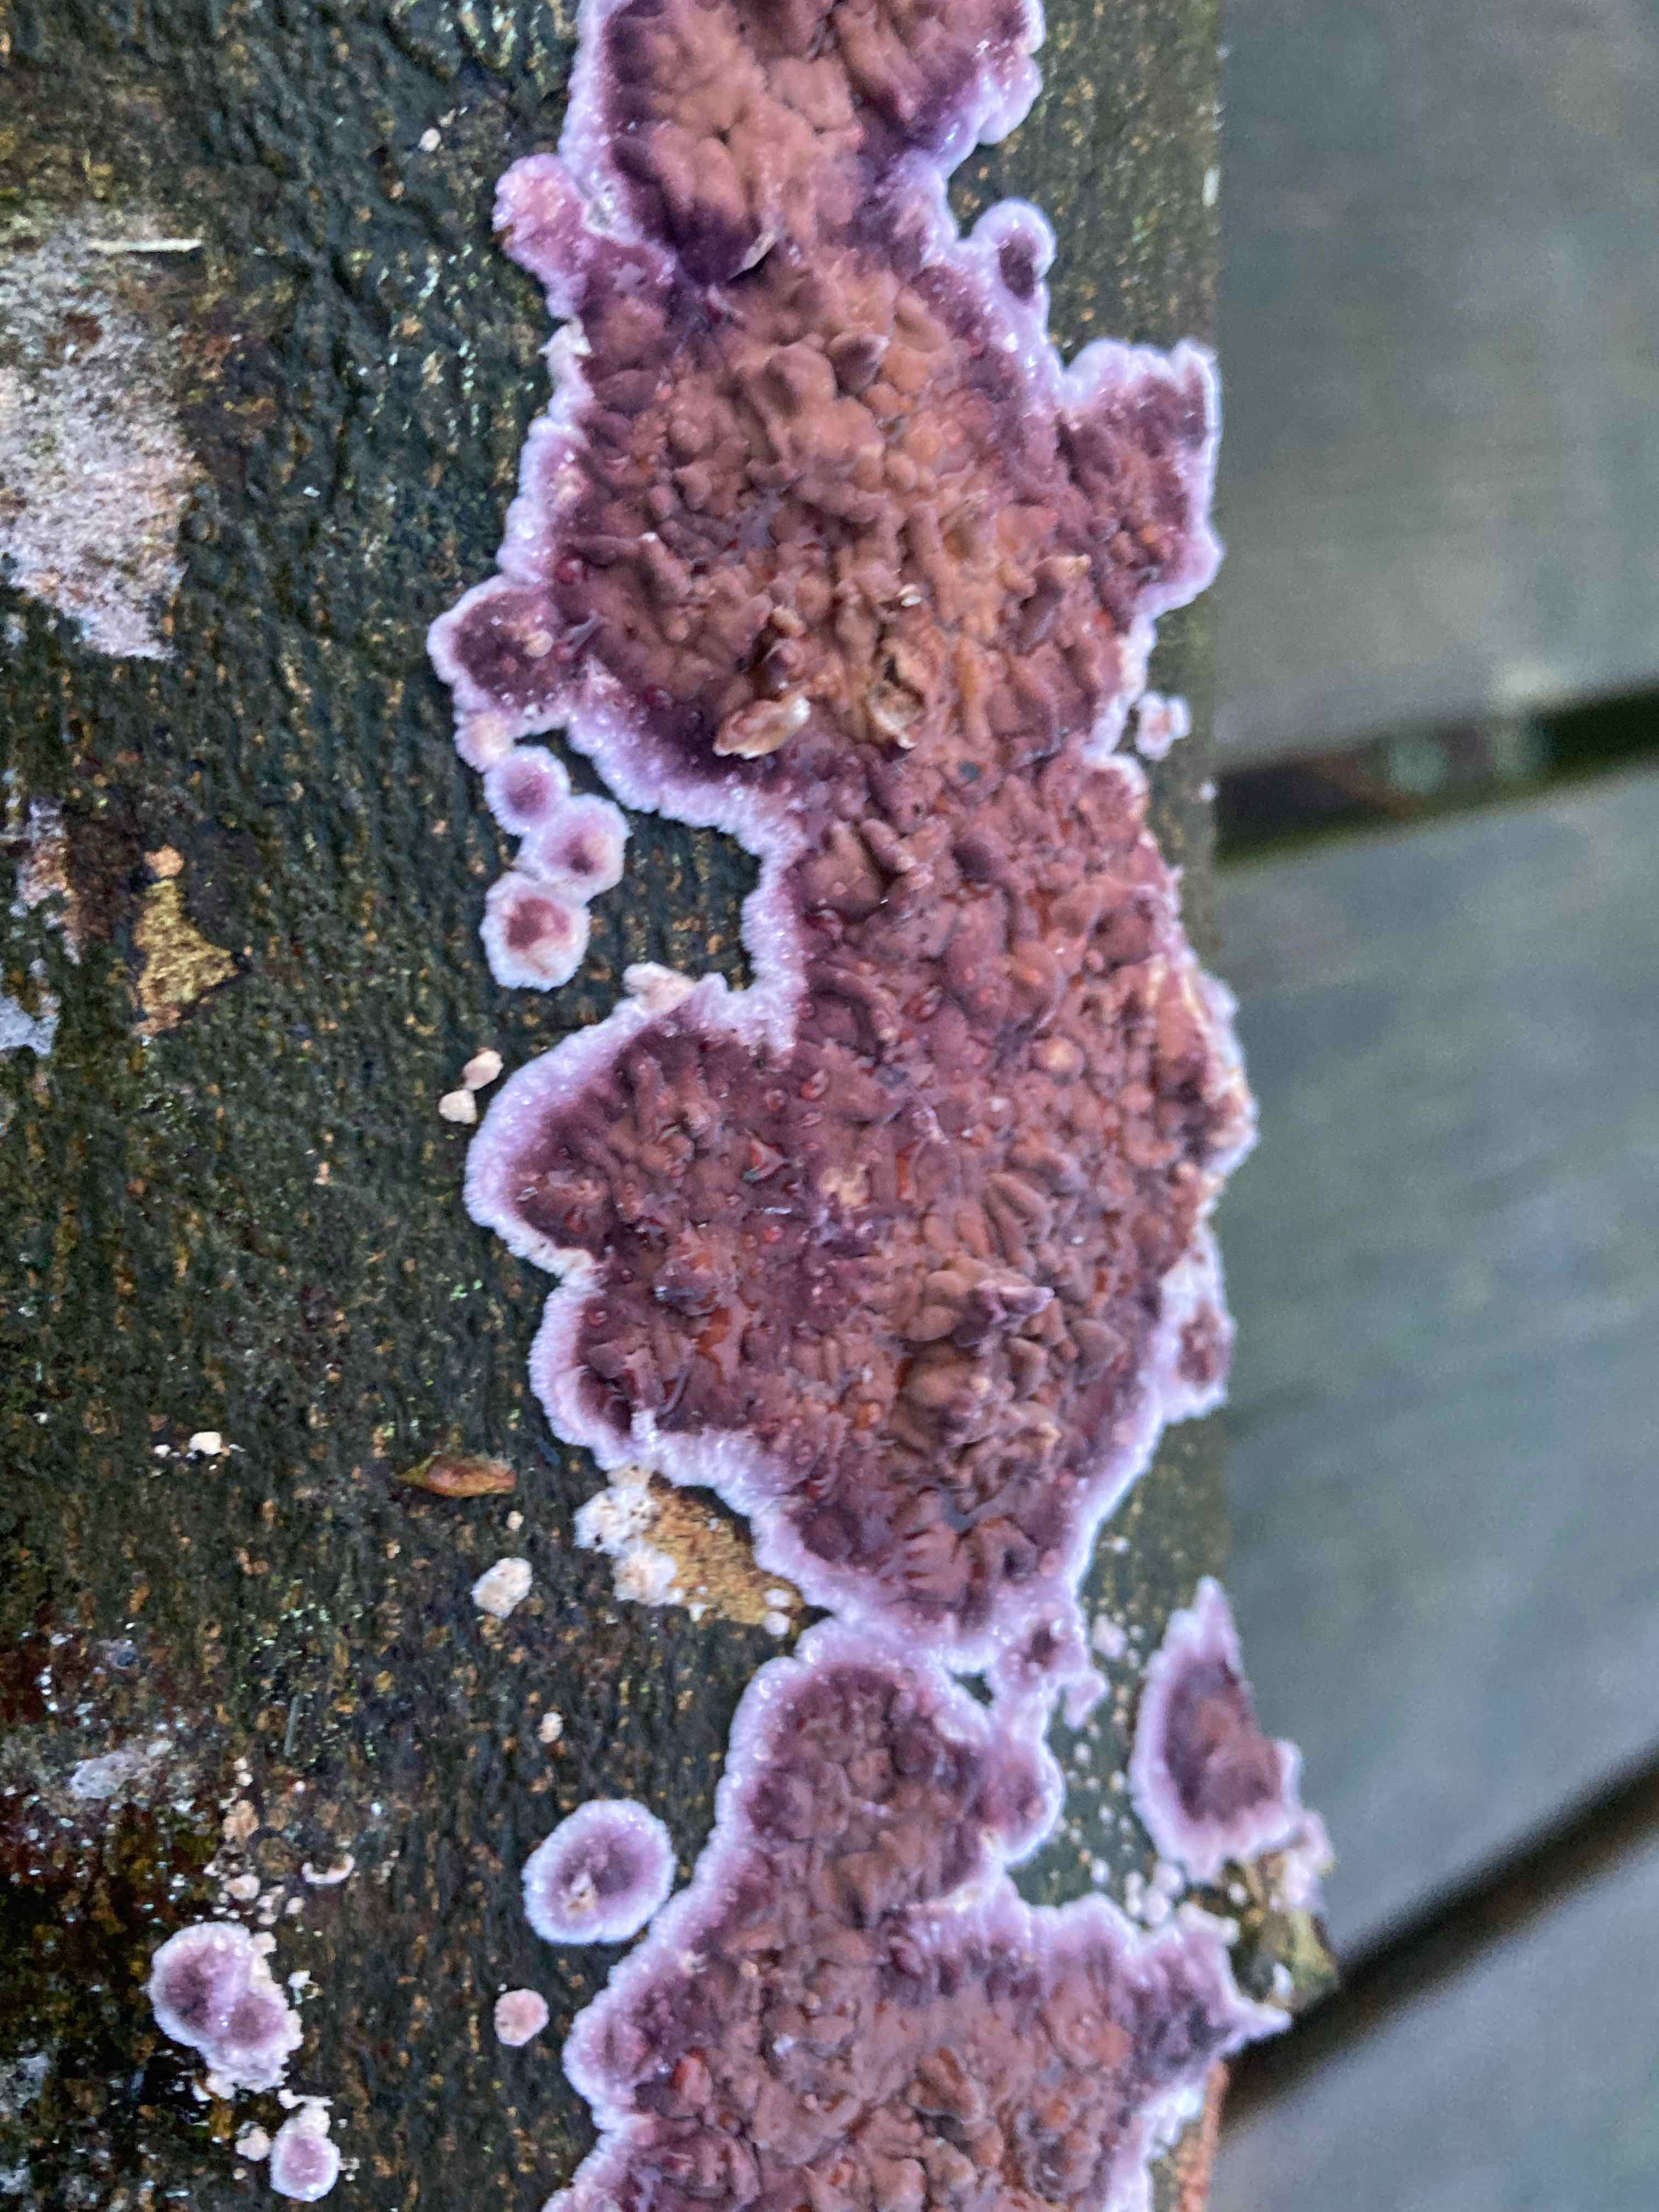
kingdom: Fungi
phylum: Basidiomycota
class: Agaricomycetes
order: Agaricales
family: Cyphellaceae
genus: Chondrostereum
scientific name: Chondrostereum purpureum
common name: purpurlædersvamp
